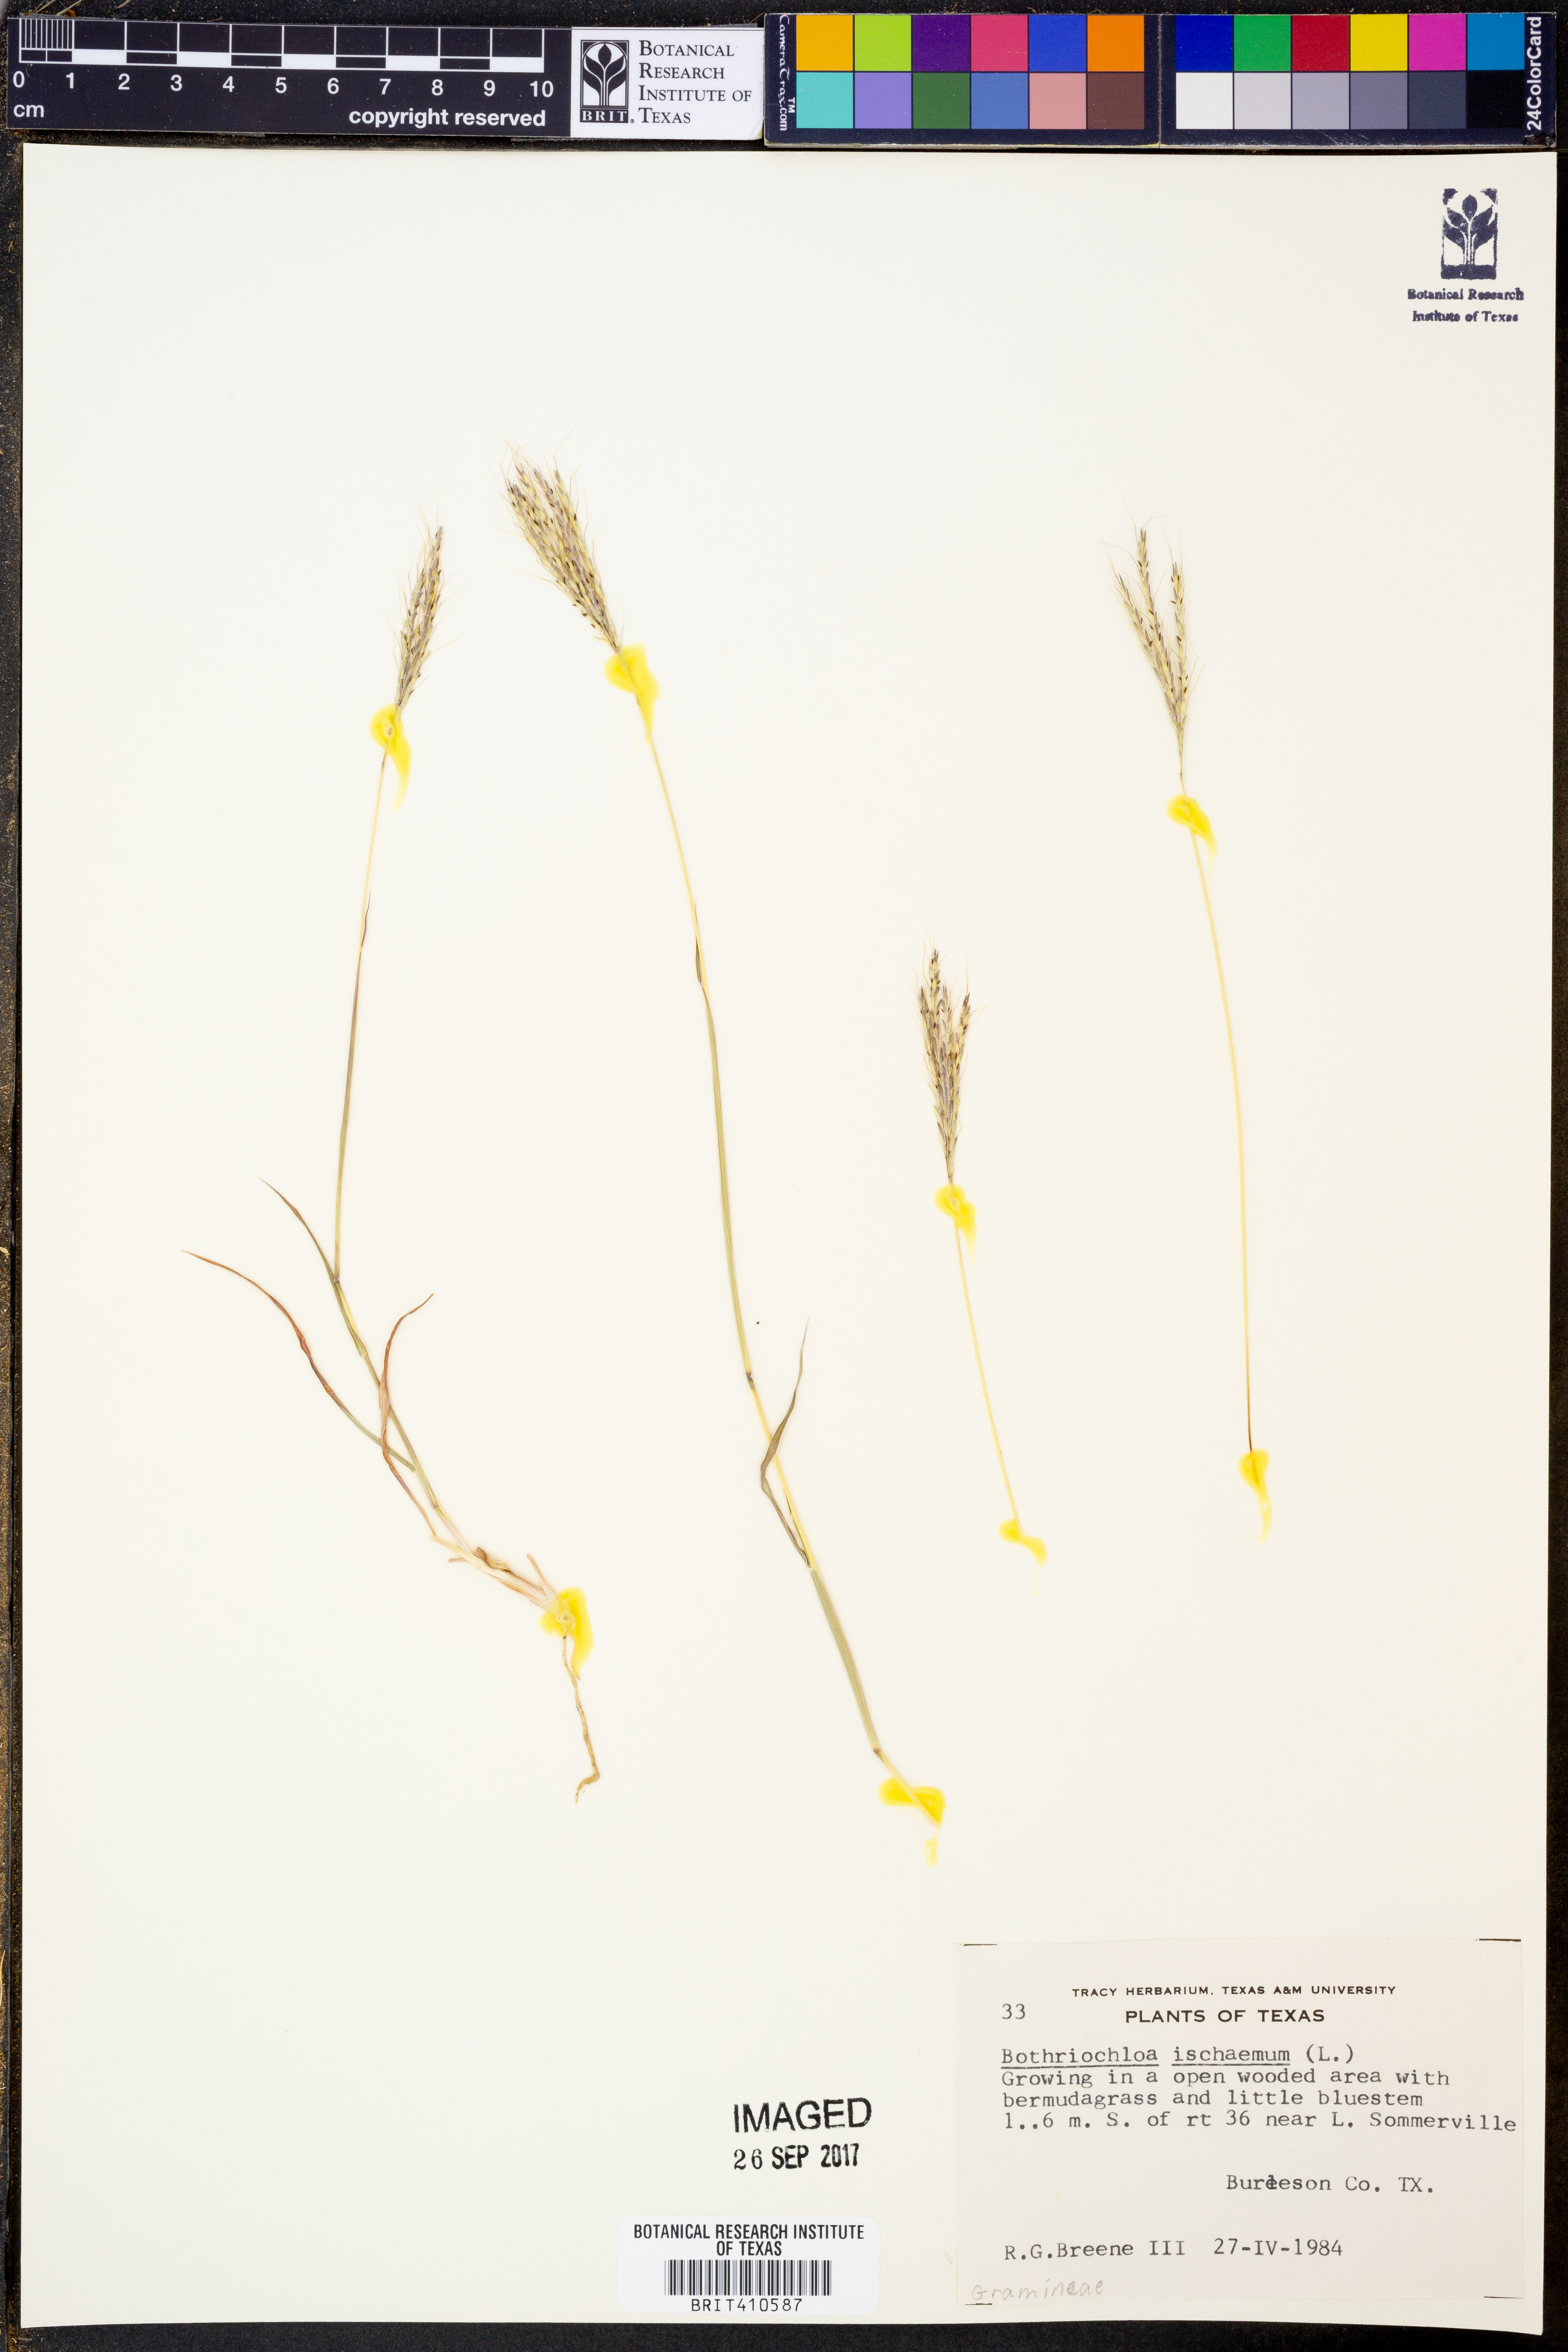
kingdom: Plantae
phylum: Tracheophyta
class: Liliopsida
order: Poales
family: Poaceae
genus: Bothriochloa
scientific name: Bothriochloa ischaemum
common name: Yellow bluestem
